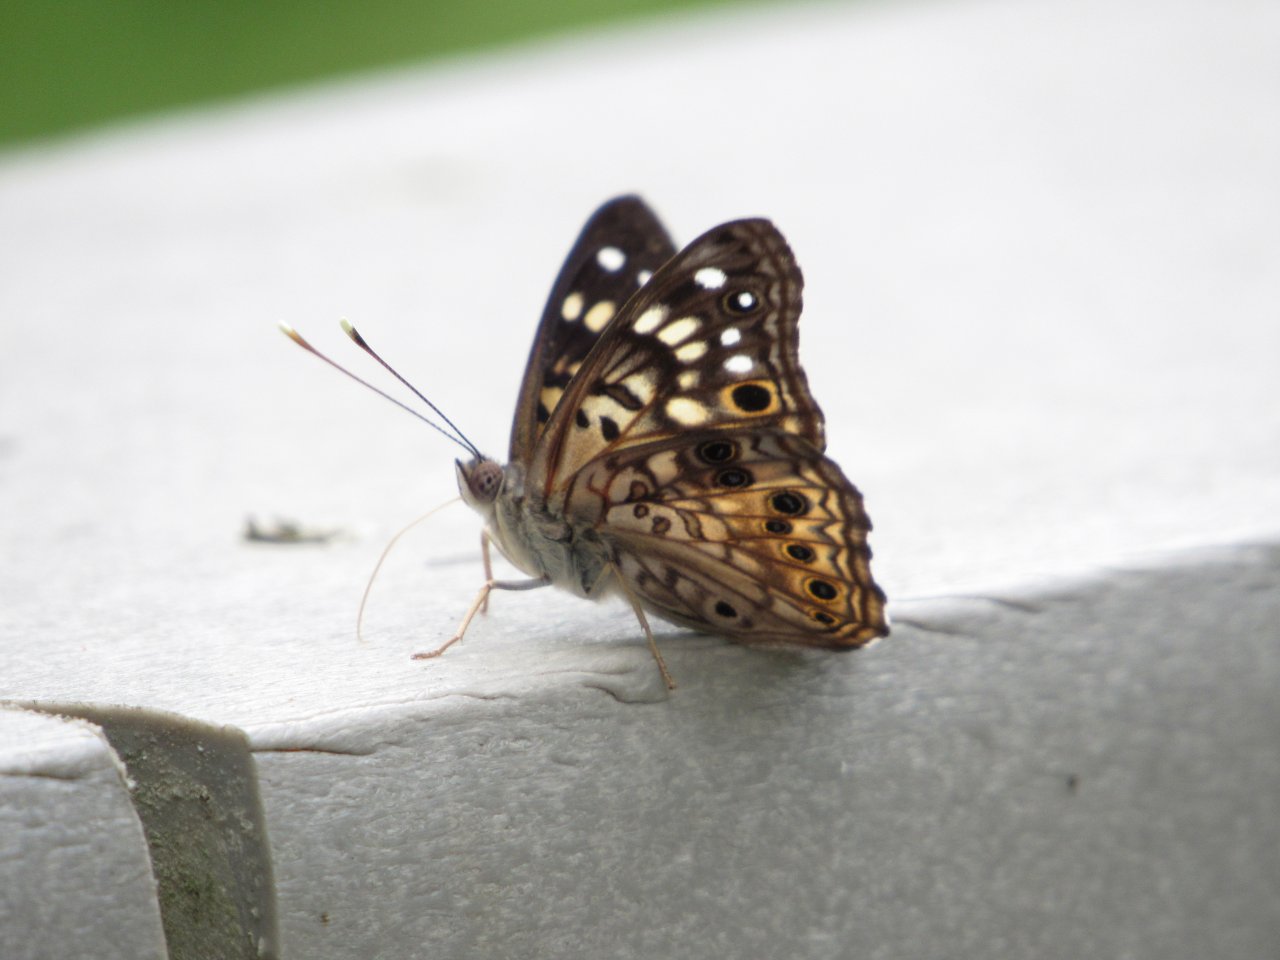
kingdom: Animalia
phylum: Arthropoda
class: Insecta
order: Lepidoptera
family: Nymphalidae
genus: Asterocampa
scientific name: Asterocampa celtis
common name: Hackberry Emperor
